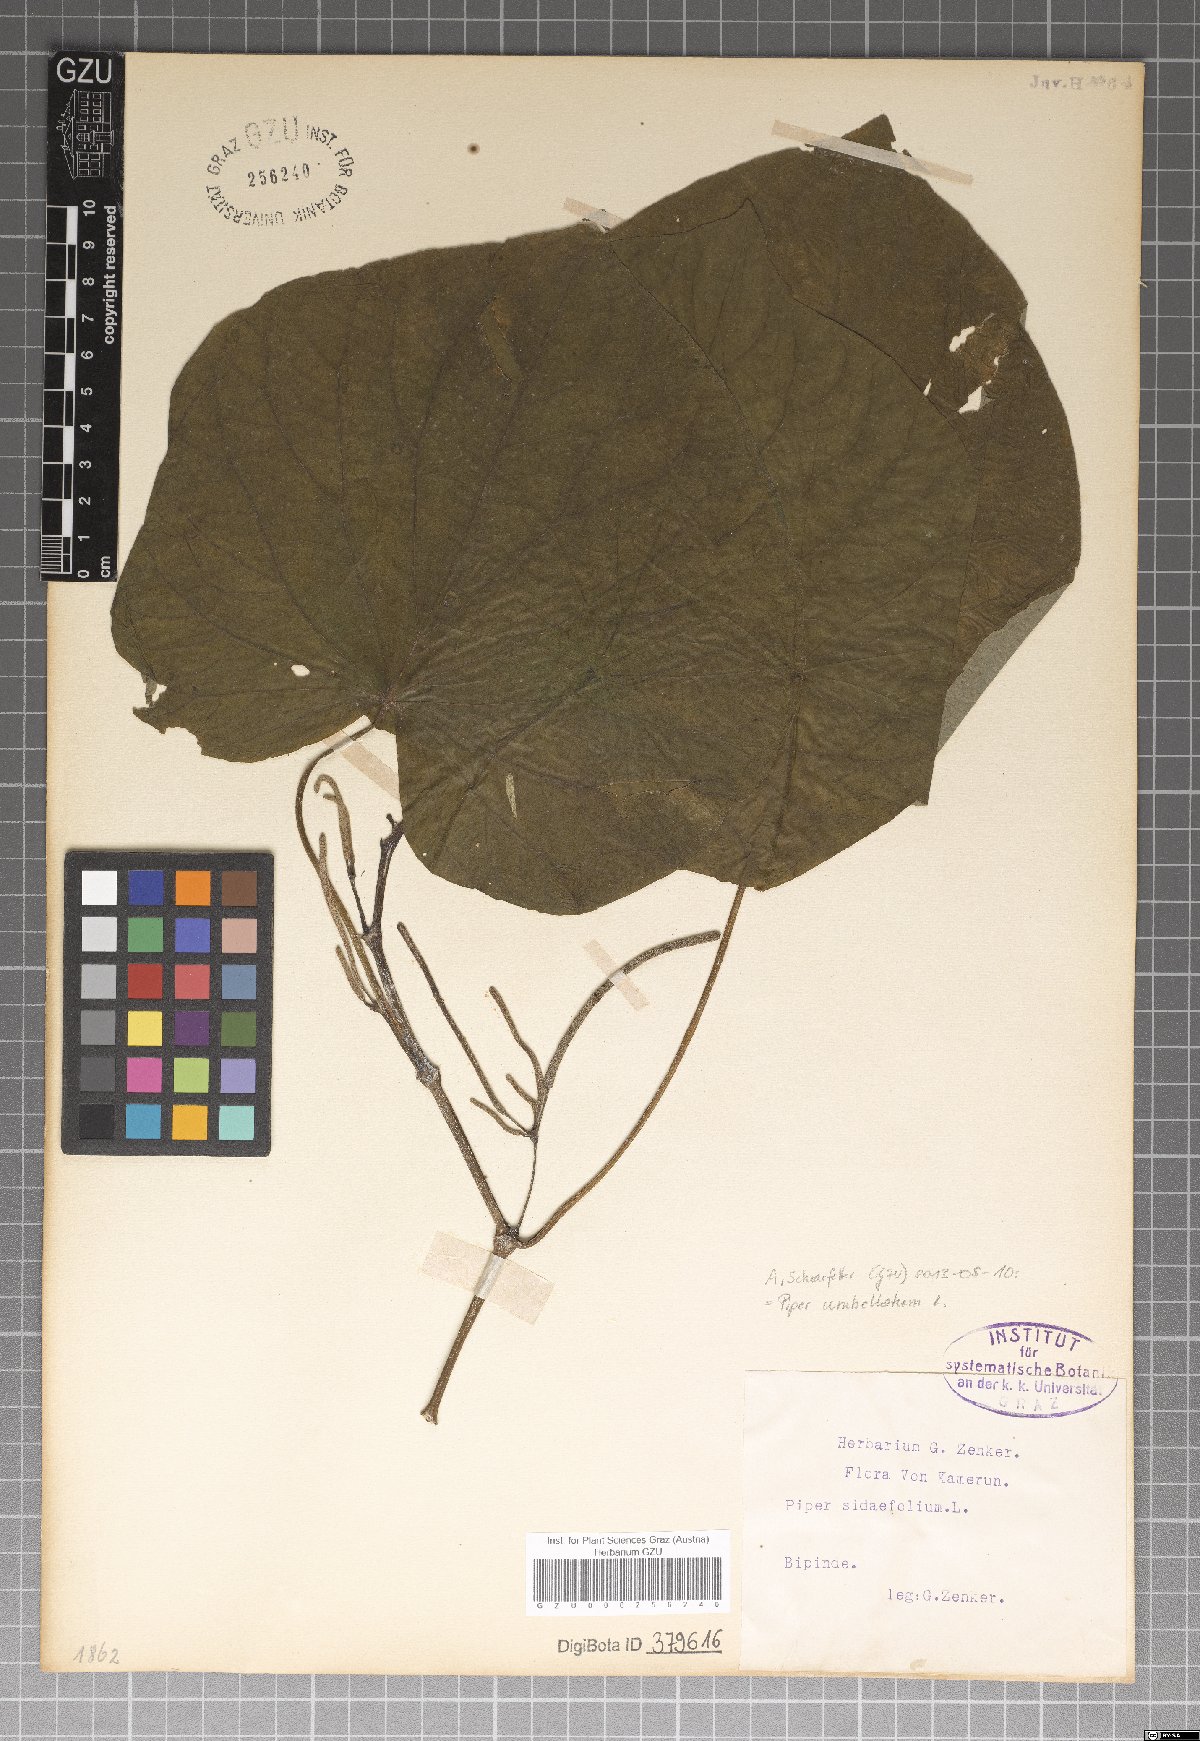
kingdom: Plantae
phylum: Tracheophyta
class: Magnoliopsida
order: Piperales
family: Piperaceae
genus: Piper
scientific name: Piper umbellatum
